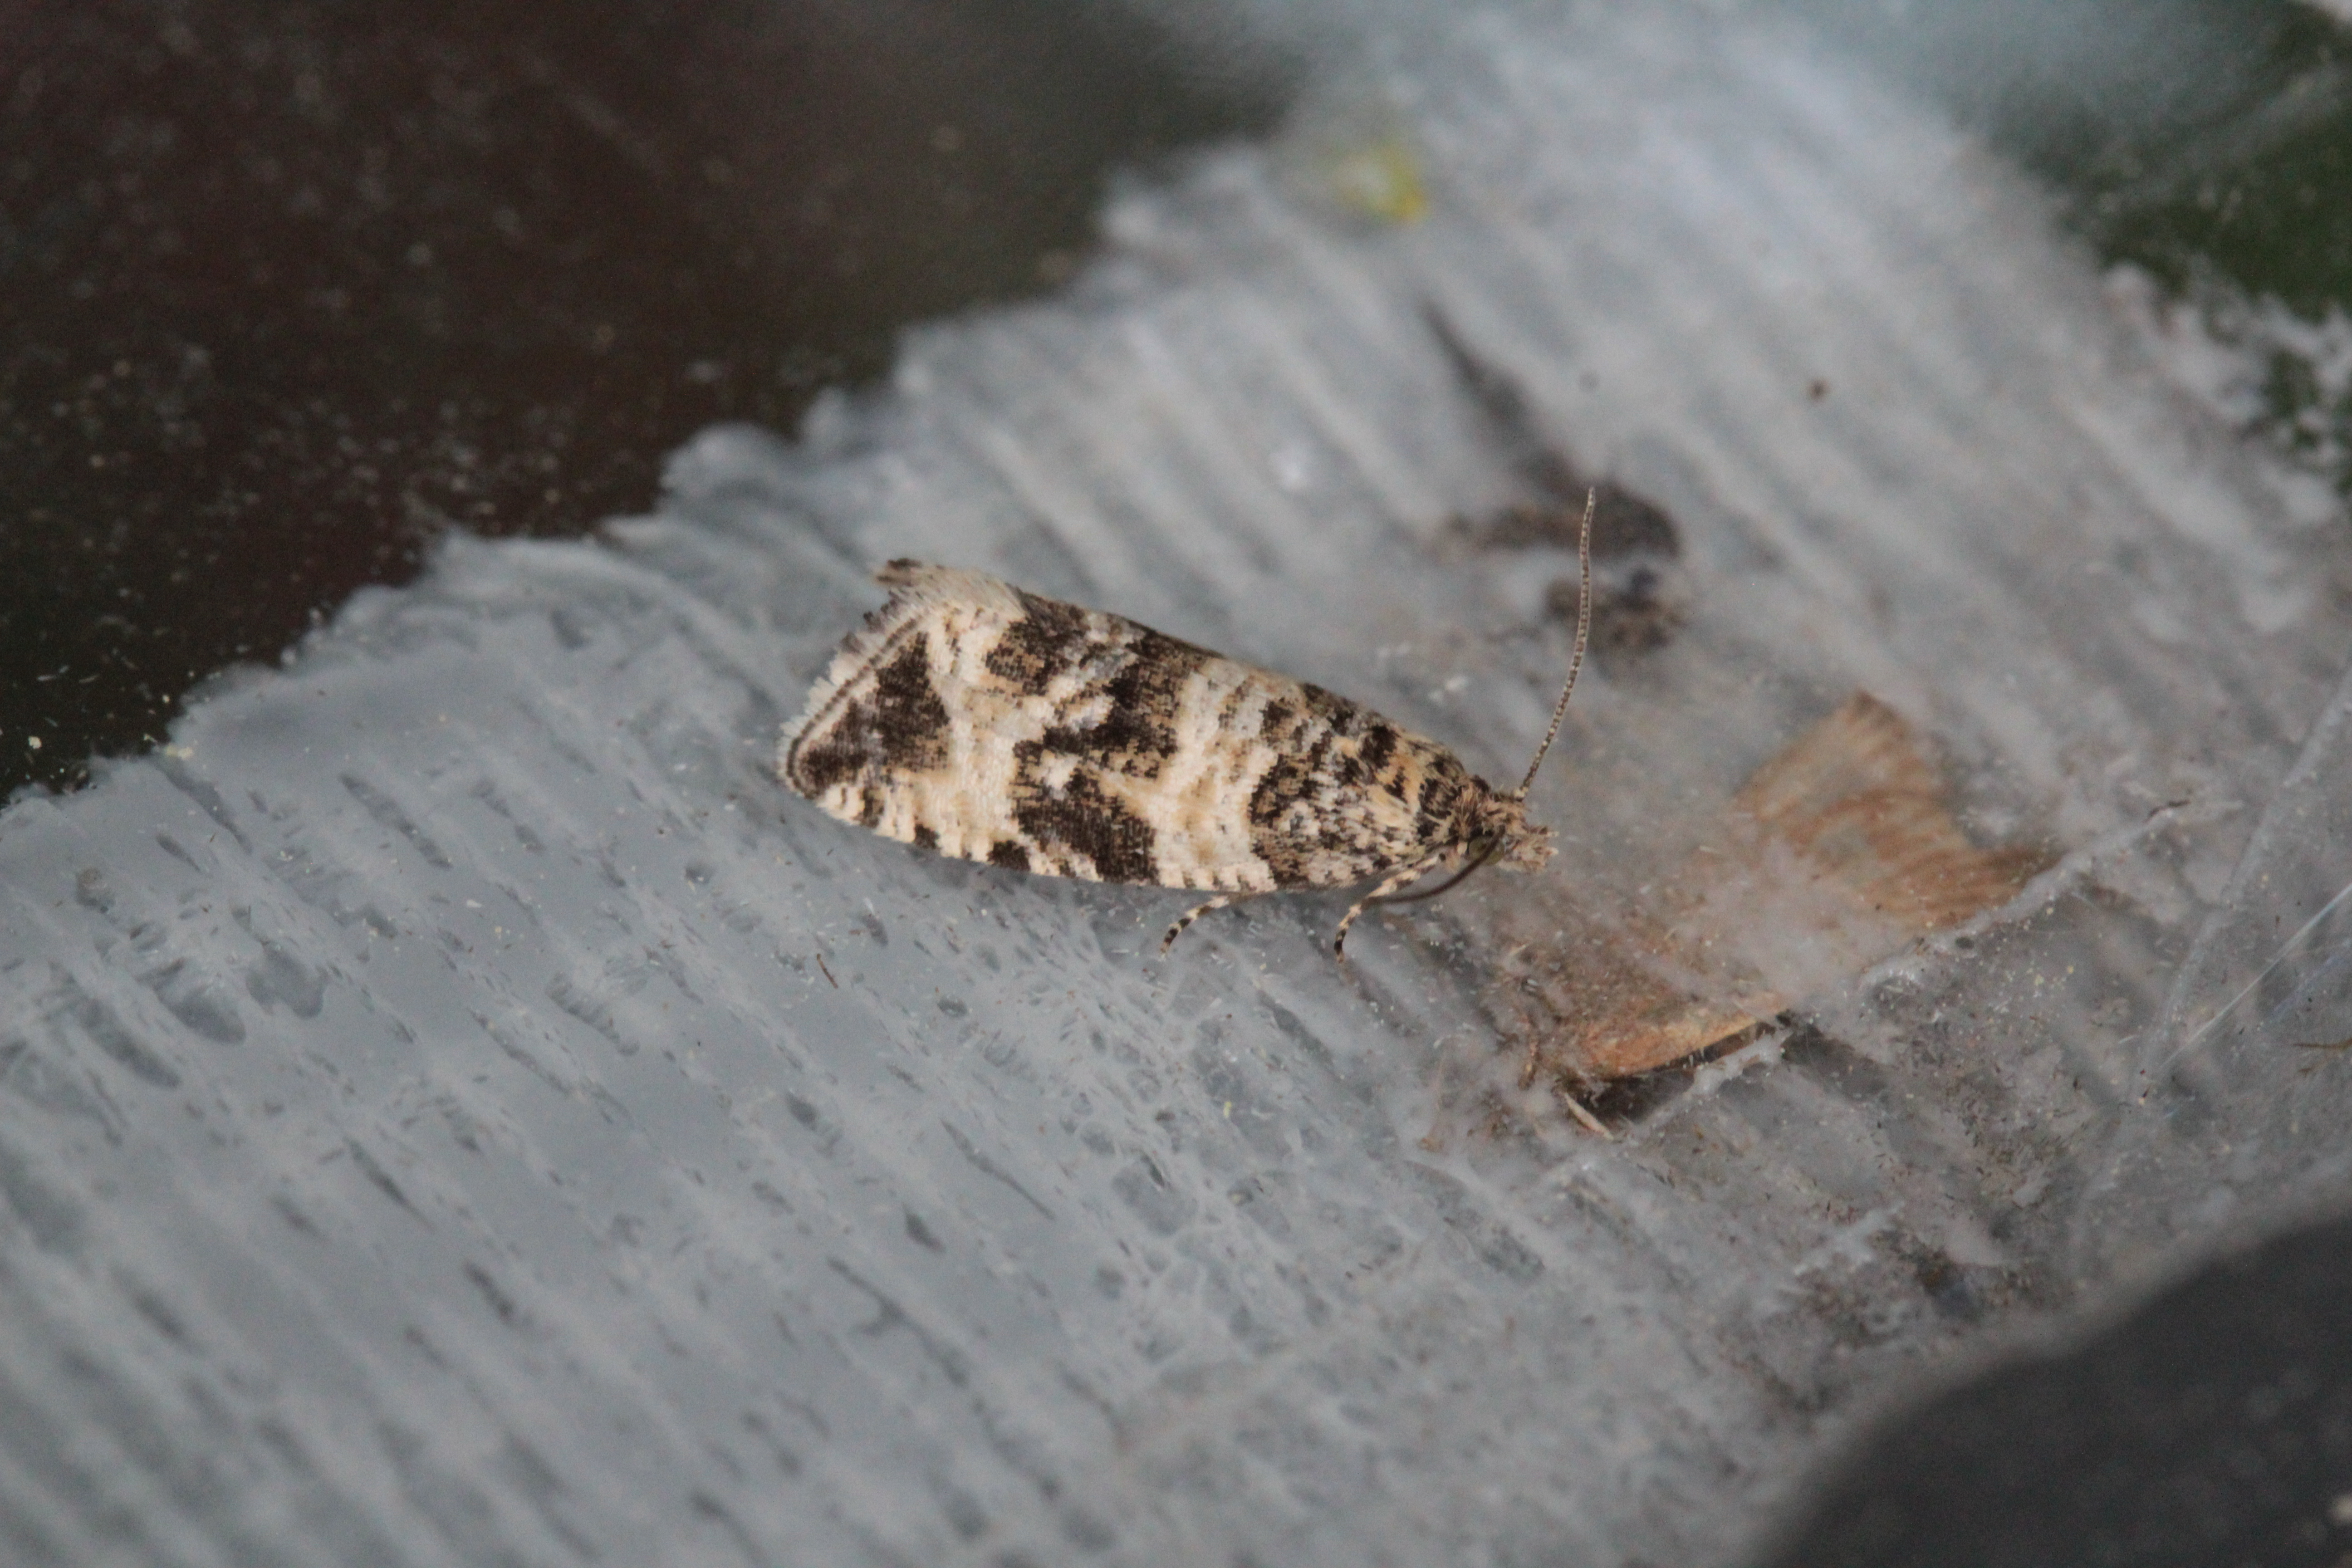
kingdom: Animalia
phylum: Arthropoda
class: Insecta
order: Lepidoptera
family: Tortricidae
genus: Celypha
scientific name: Celypha rurestrana
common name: Hawkweed marble
